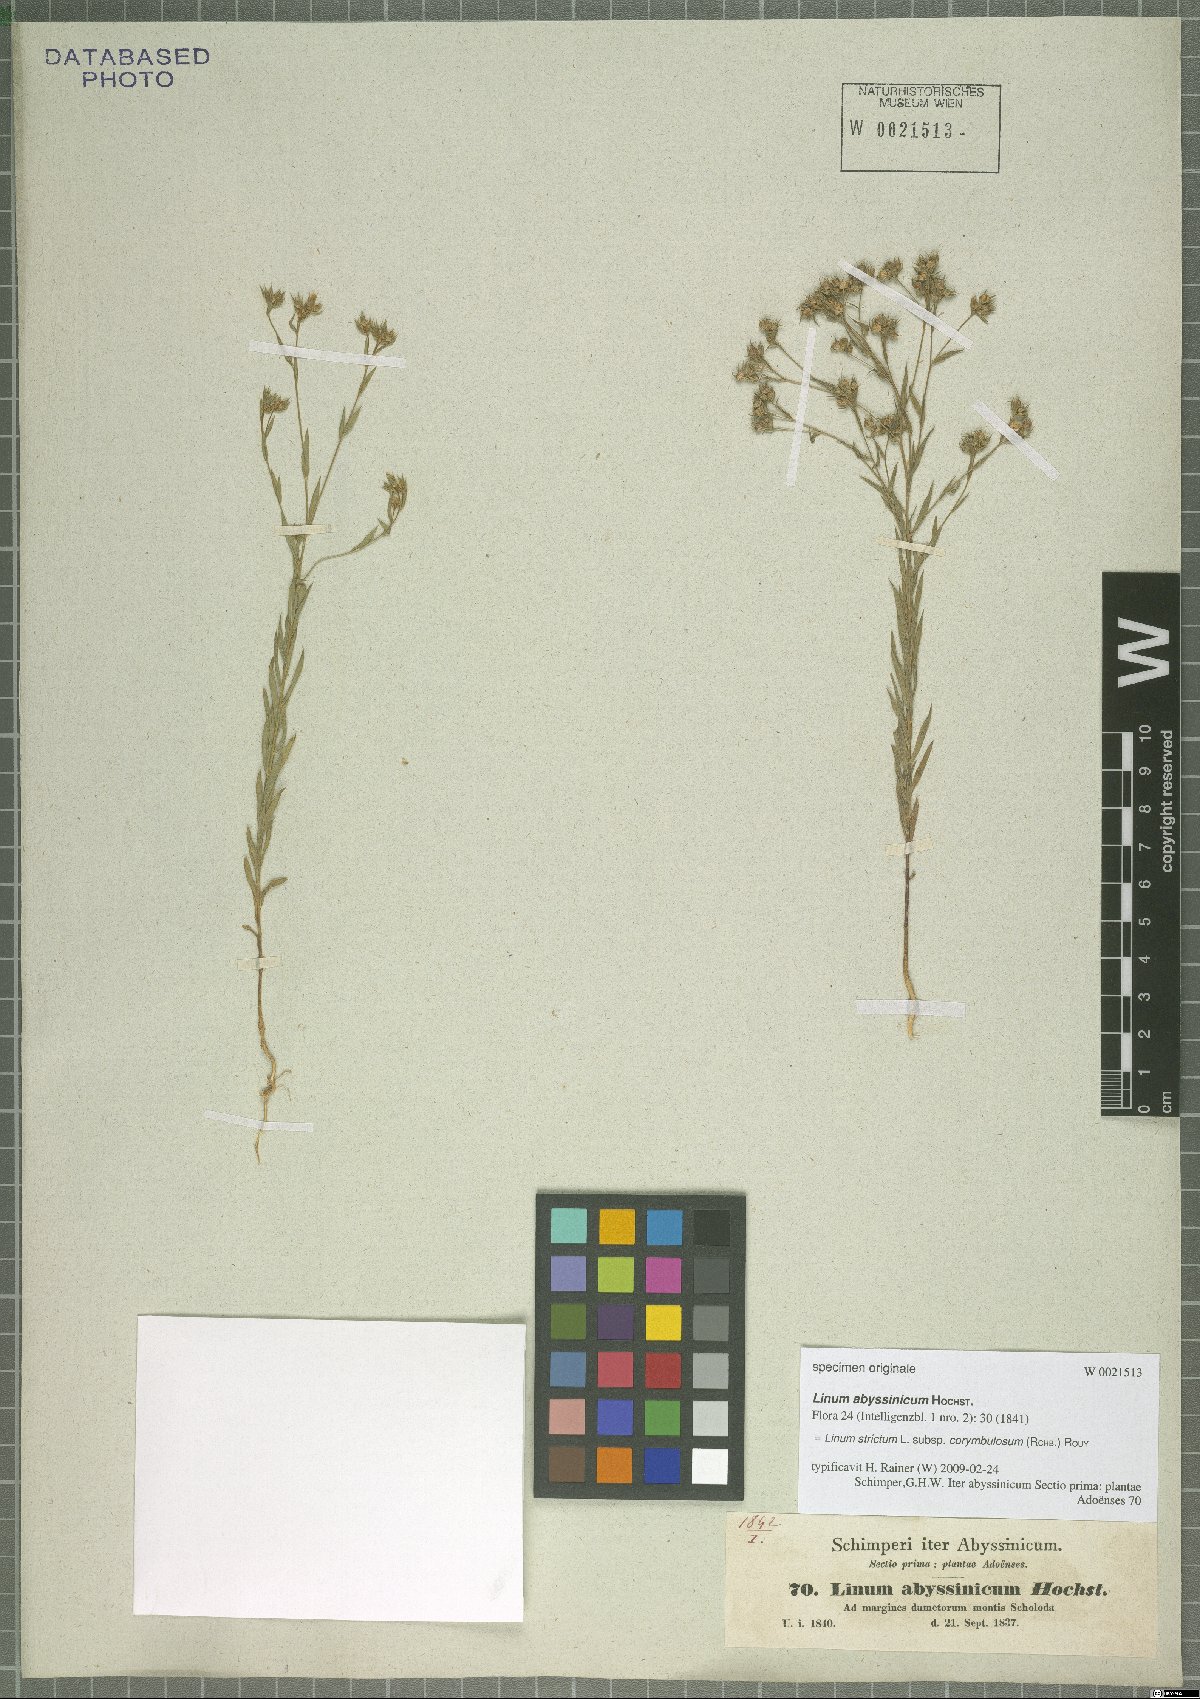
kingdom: Plantae
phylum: Tracheophyta
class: Magnoliopsida
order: Malpighiales
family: Linaceae
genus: Linum
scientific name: Linum corymbulosum
